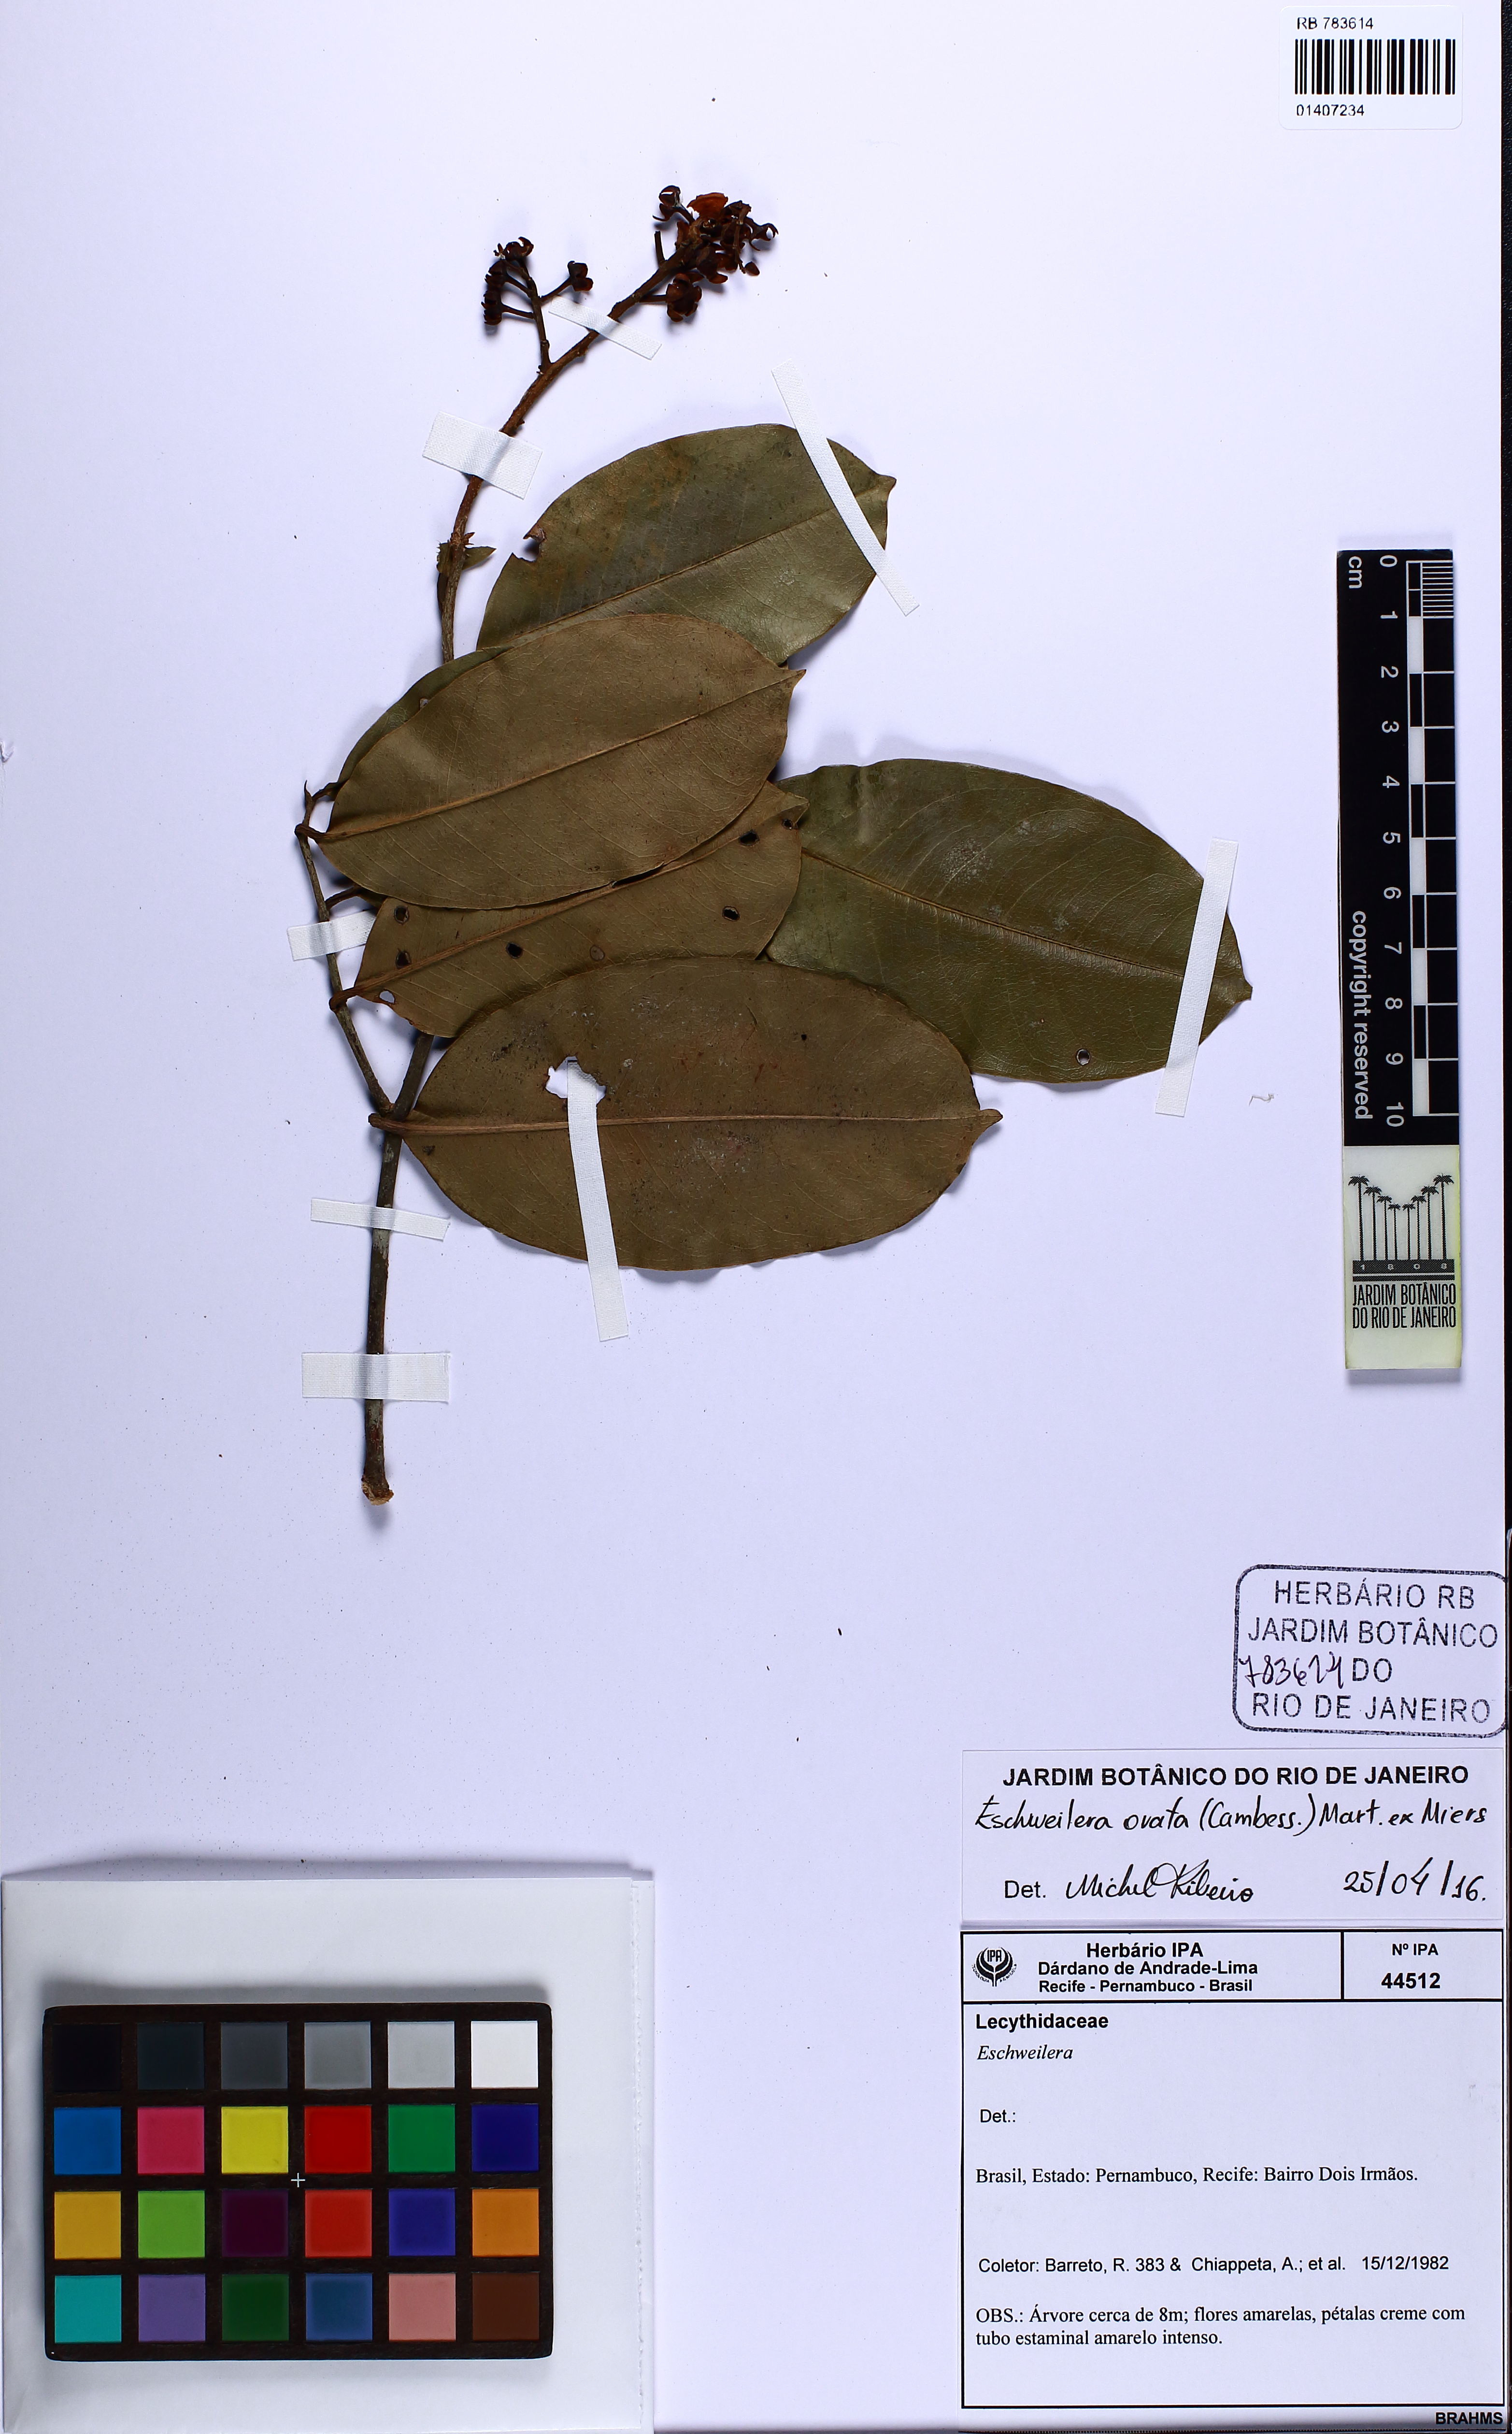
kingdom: Plantae
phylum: Tracheophyta
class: Magnoliopsida
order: Ericales
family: Lecythidaceae
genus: Eschweilera
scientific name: Eschweilera ovata
